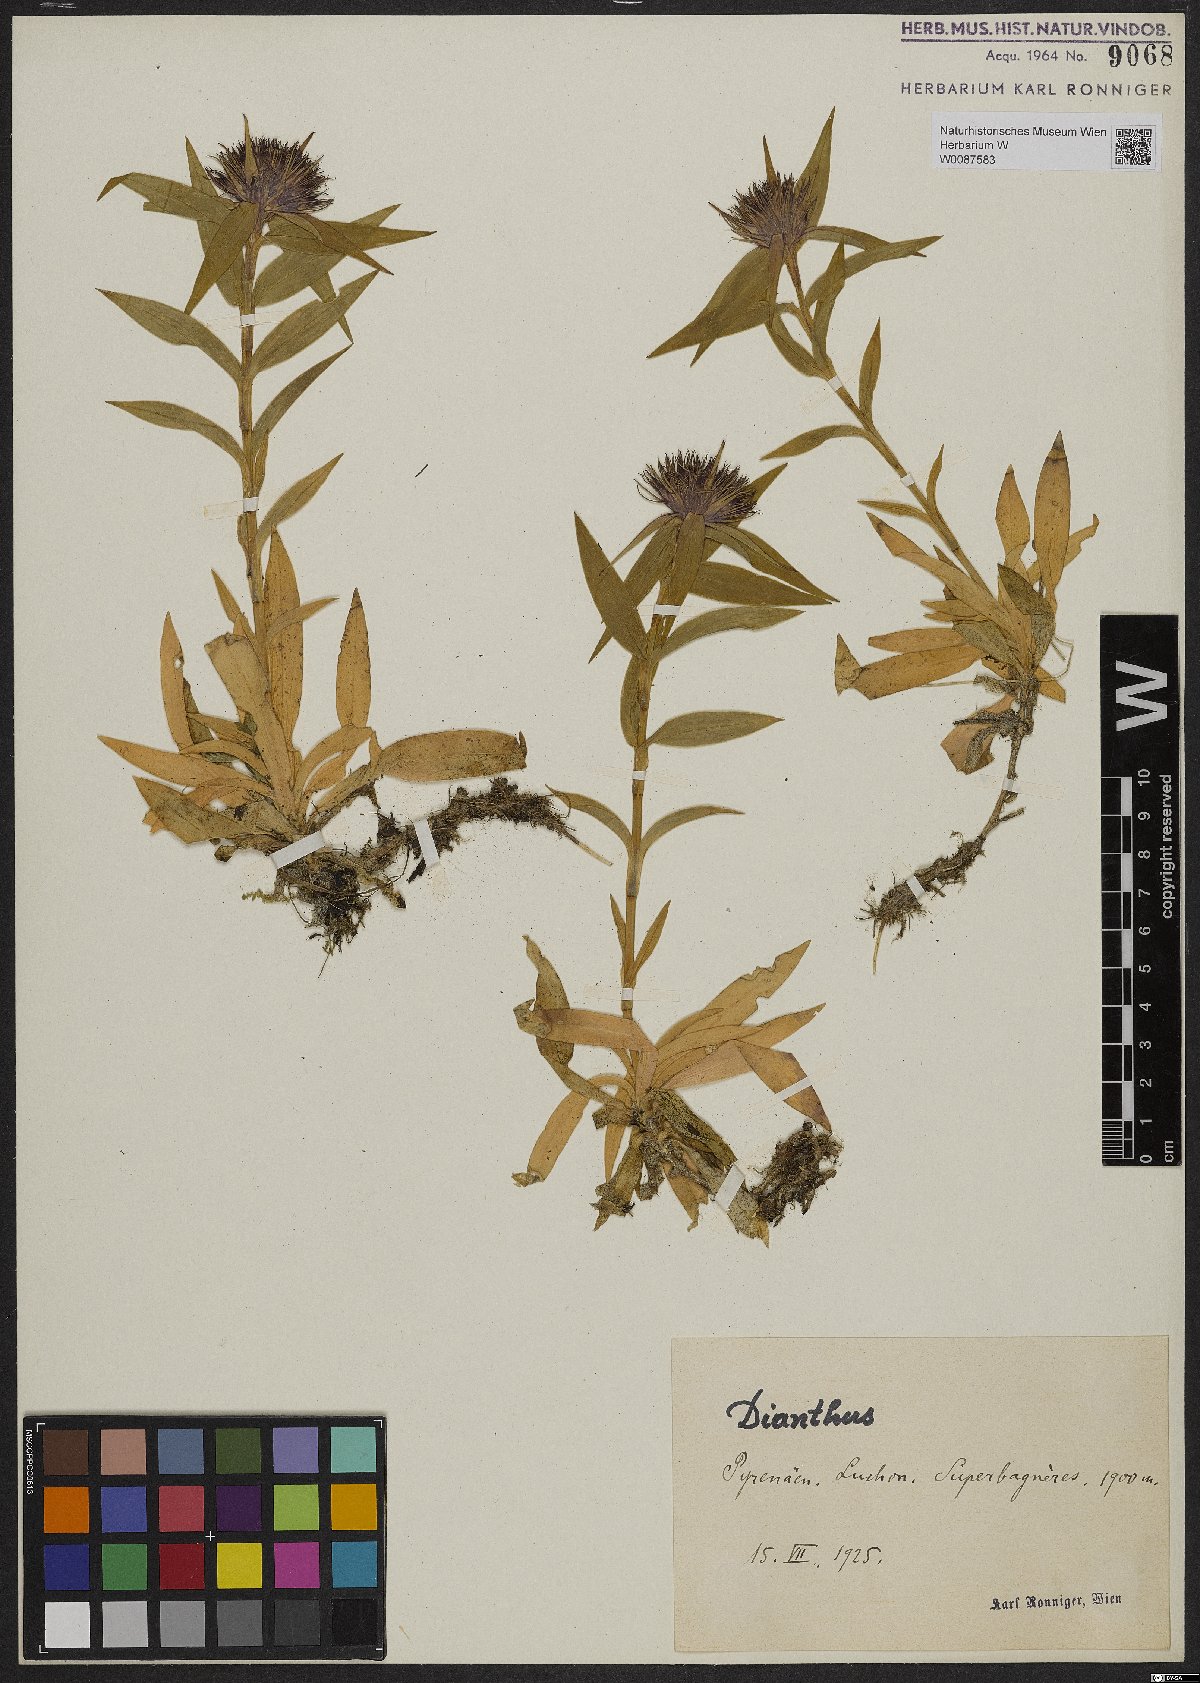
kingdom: Plantae
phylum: Tracheophyta
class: Magnoliopsida
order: Caryophyllales
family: Caryophyllaceae
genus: Dianthus
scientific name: Dianthus barbatus
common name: Sweet-william
